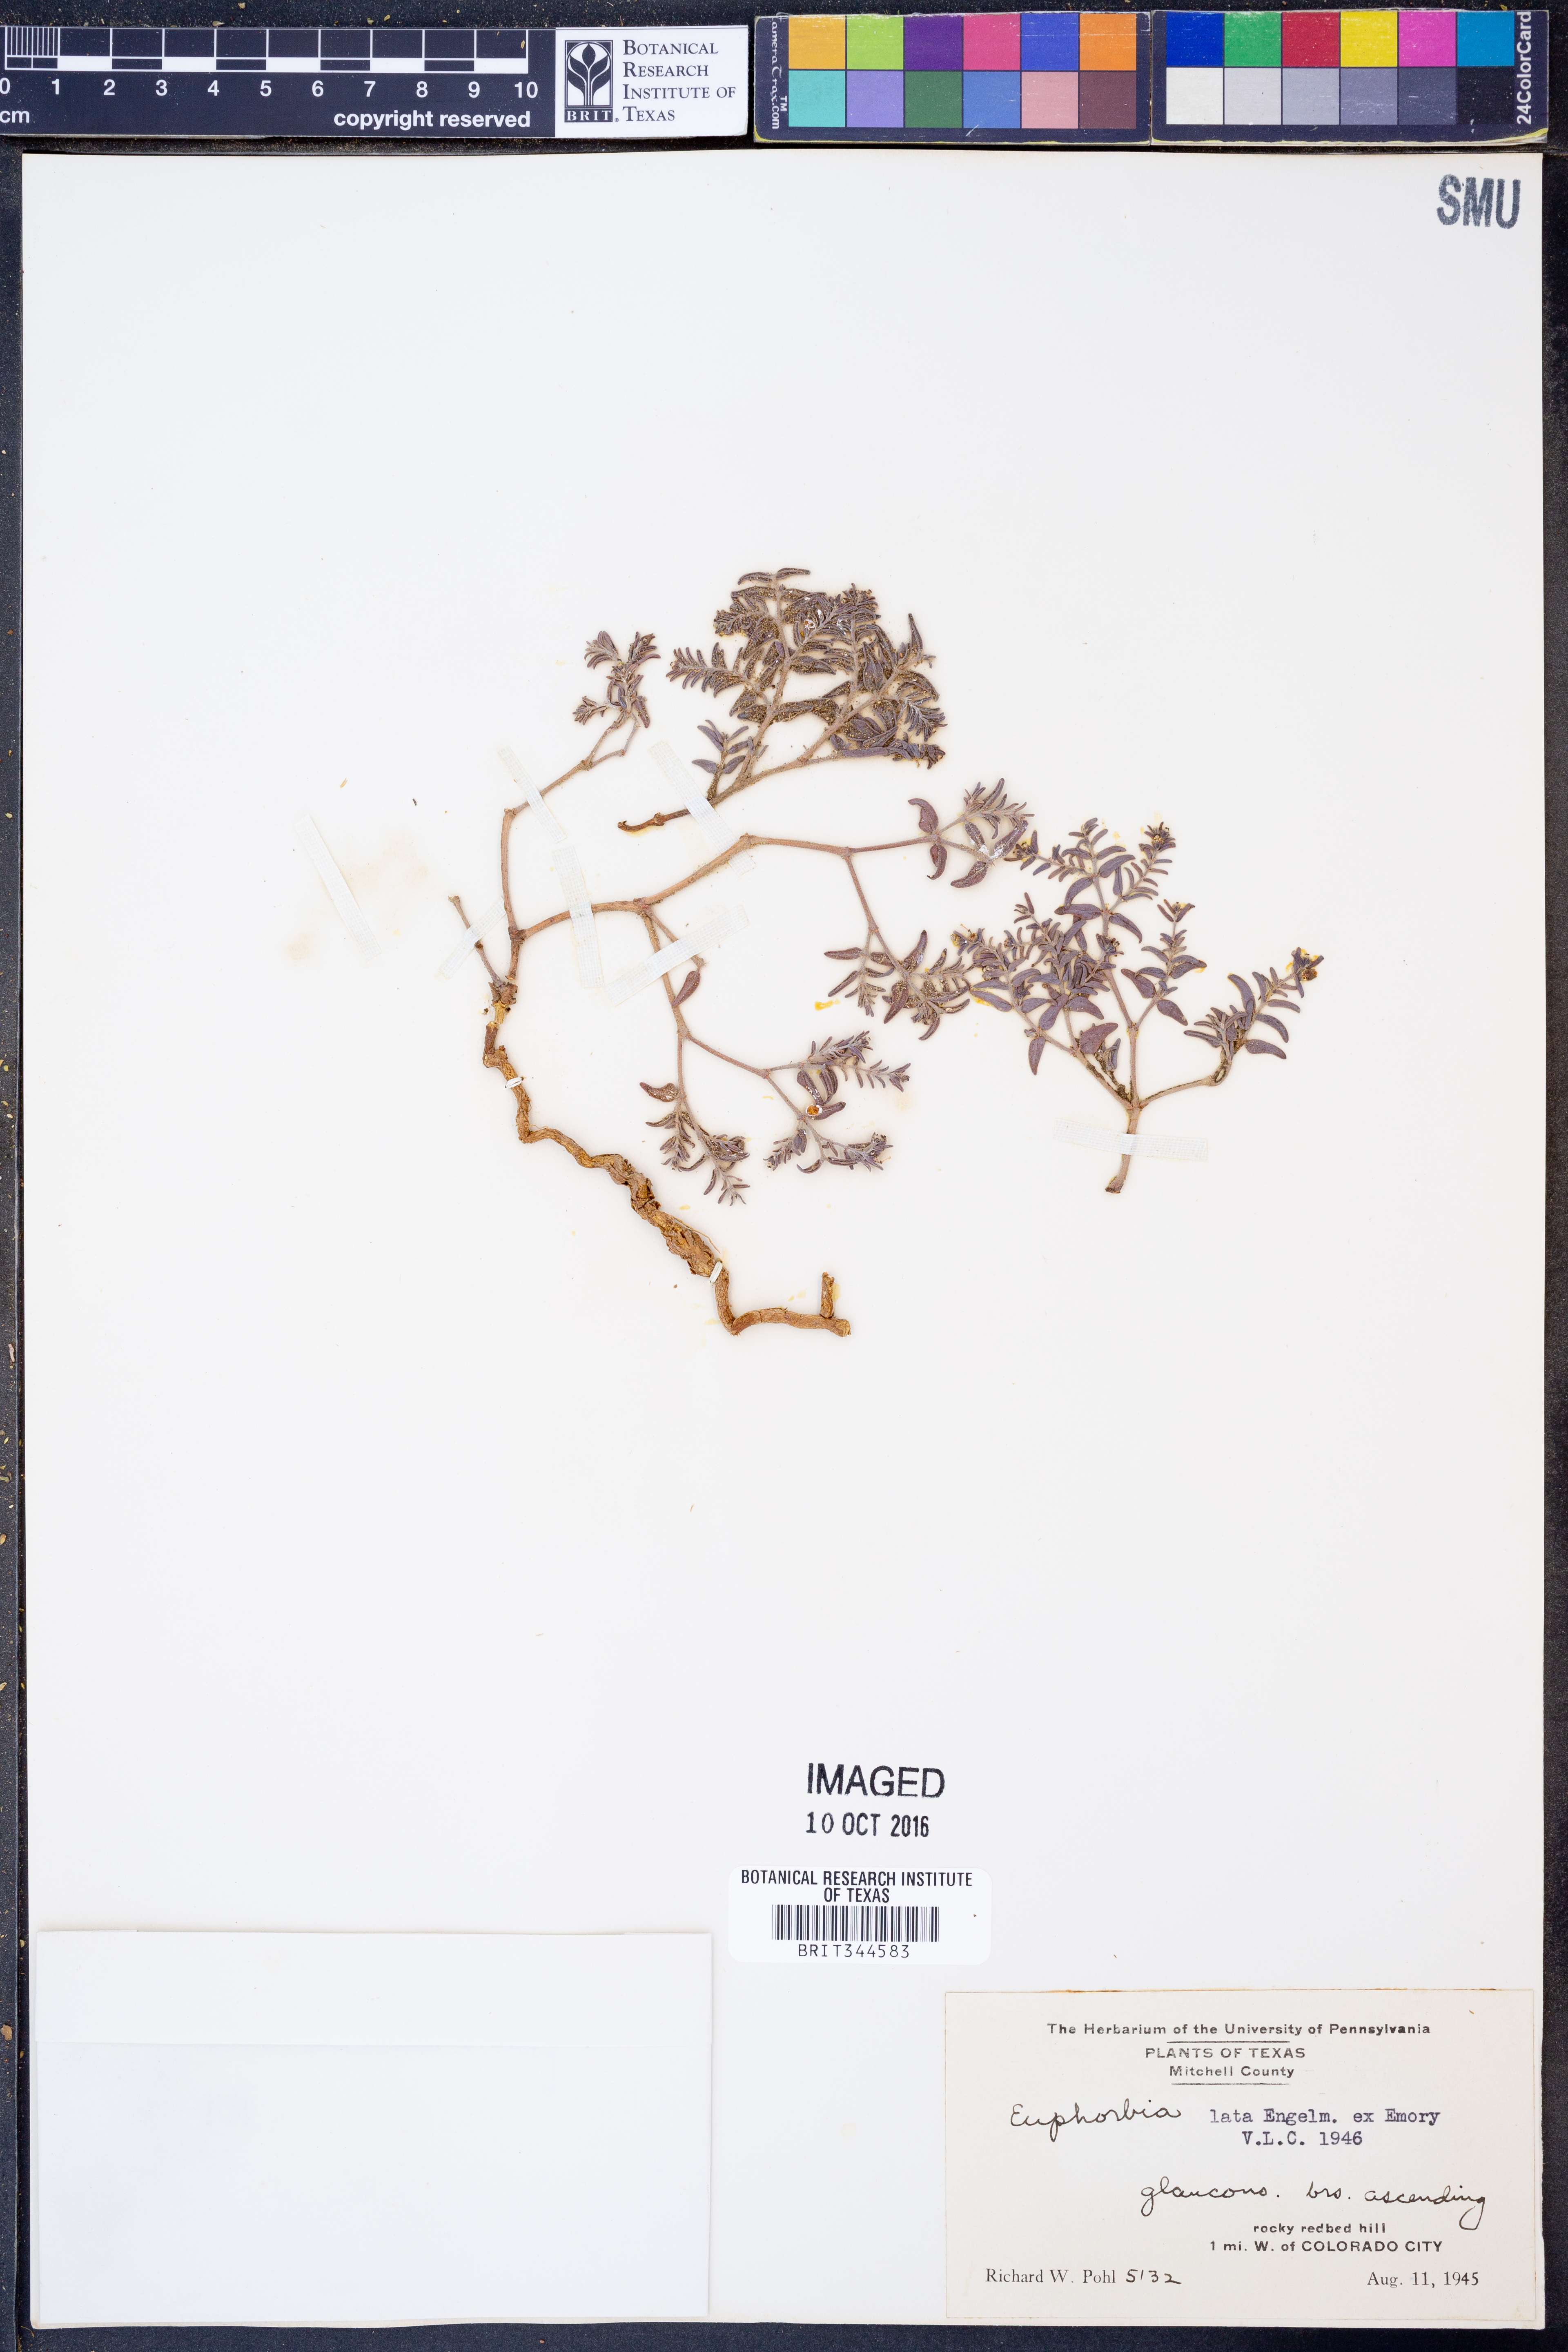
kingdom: Plantae
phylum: Tracheophyta
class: Magnoliopsida
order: Malpighiales
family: Euphorbiaceae
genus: Euphorbia
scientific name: Euphorbia lata
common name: Hoary euphorbia
